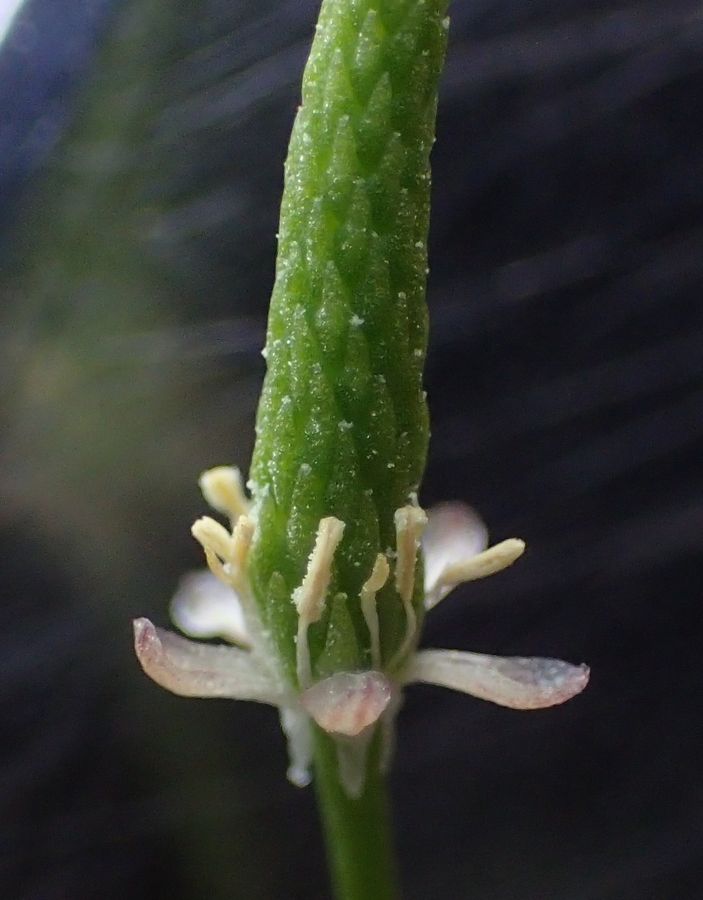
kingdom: Plantae
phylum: Tracheophyta
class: Magnoliopsida
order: Ranunculales
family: Ranunculaceae
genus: Myosurus
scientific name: Myosurus minimus
